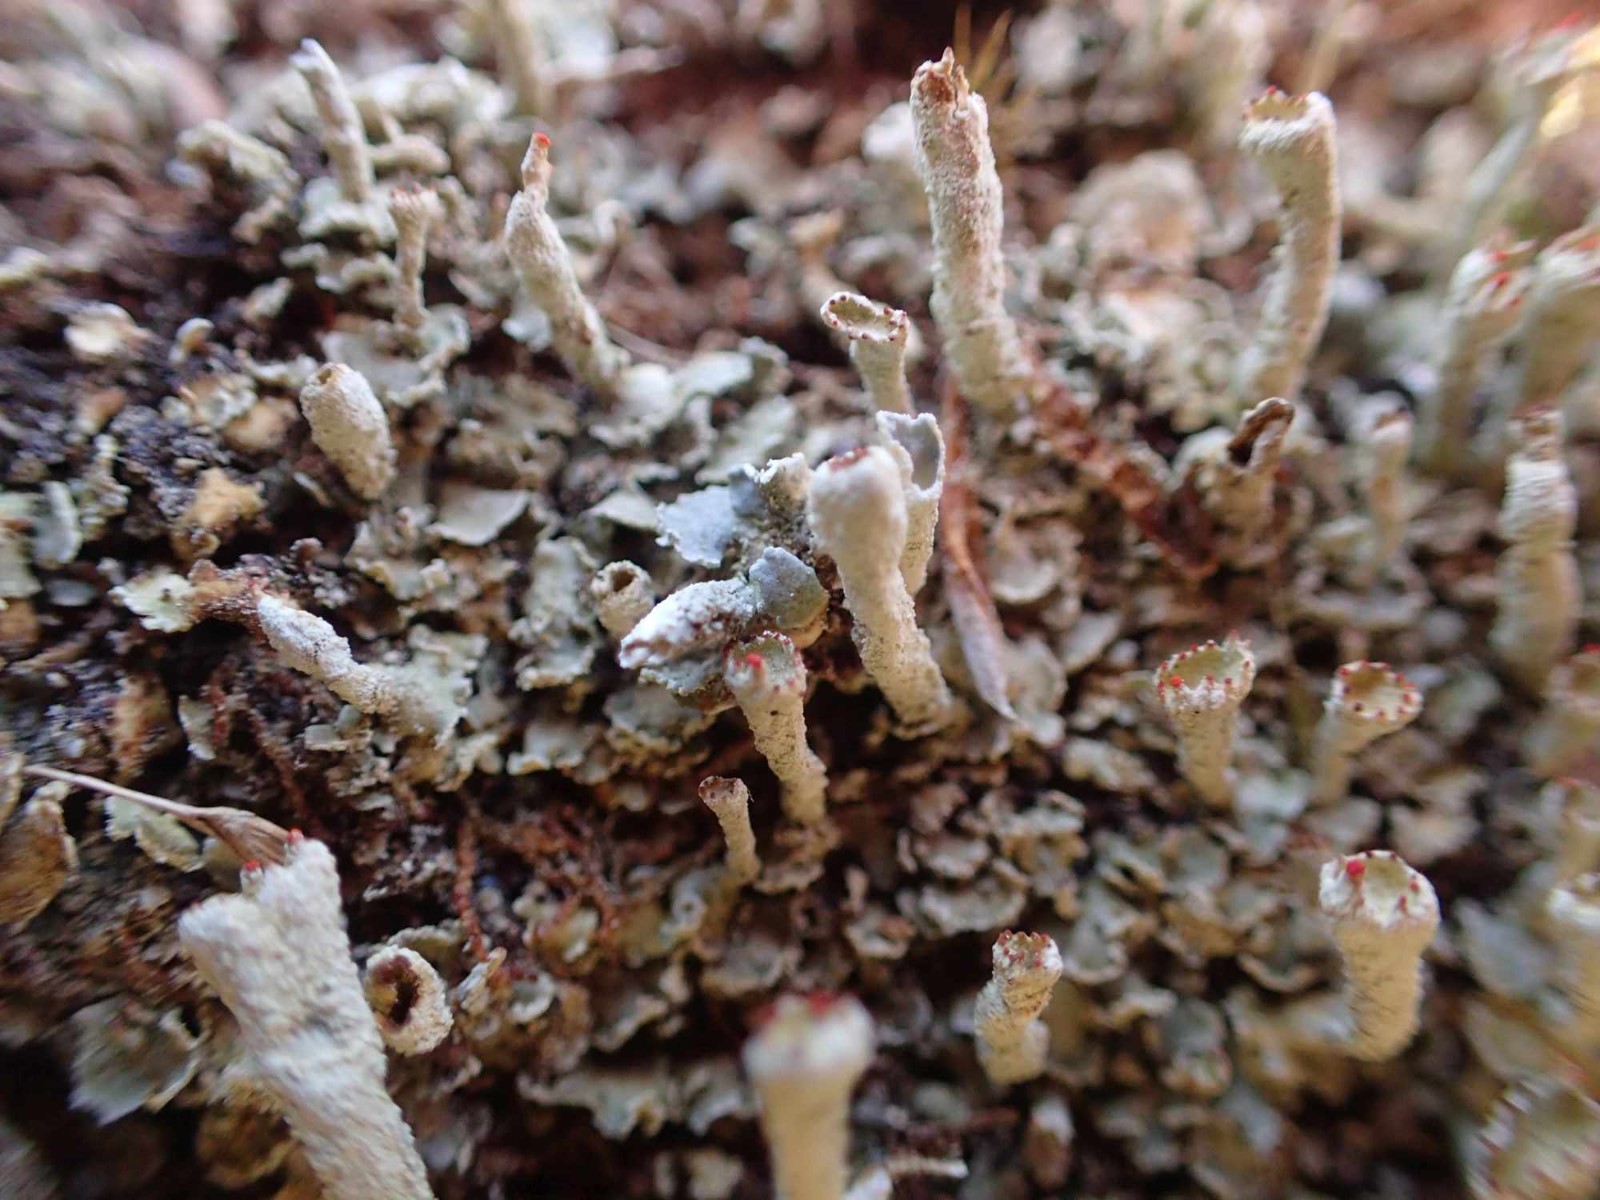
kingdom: Fungi
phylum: Ascomycota
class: Lecanoromycetes
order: Lecanorales
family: Cladoniaceae
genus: Cladonia
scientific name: Cladonia digitata
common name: finger-bægerlav
